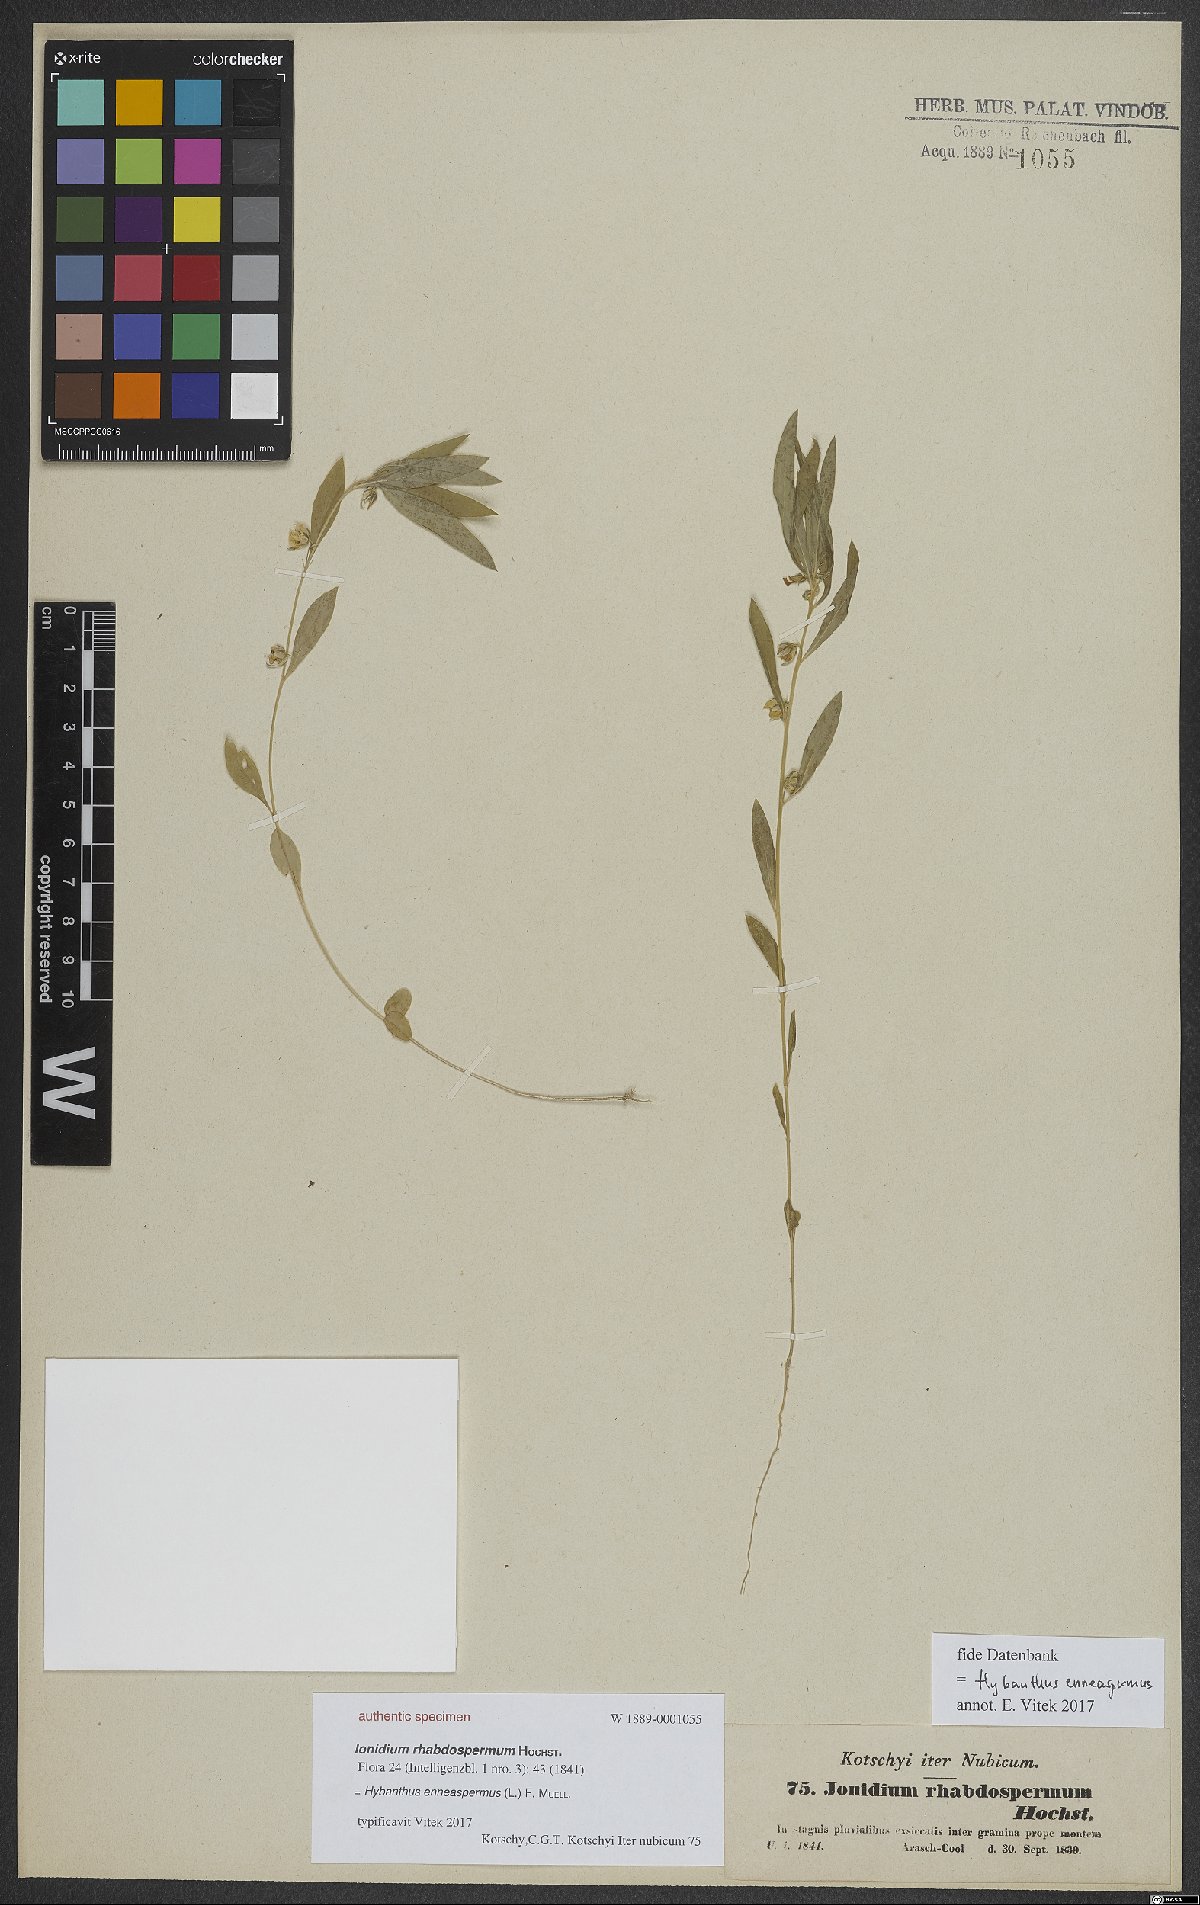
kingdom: Plantae
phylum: Tracheophyta
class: Magnoliopsida
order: Malpighiales
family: Violaceae
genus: Pigea
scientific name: Pigea enneasperma
